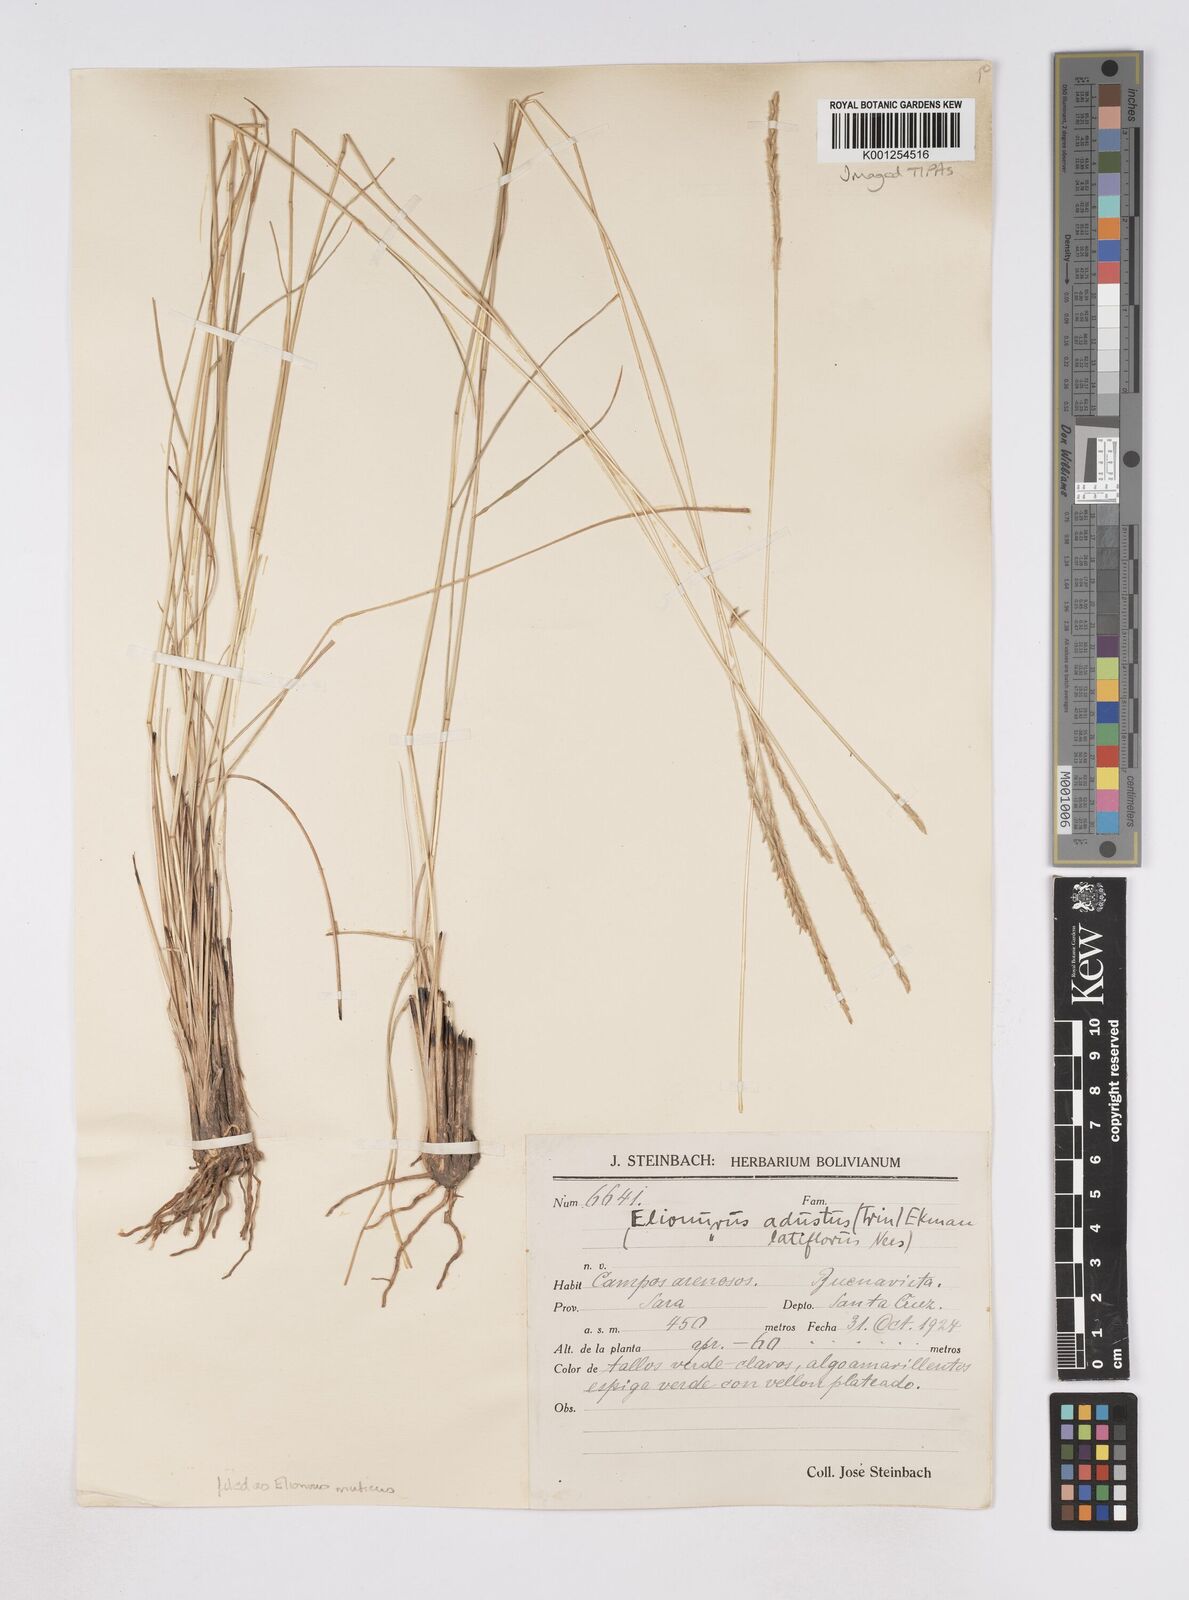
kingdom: Plantae
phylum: Tracheophyta
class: Liliopsida
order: Poales
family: Poaceae
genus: Elionurus
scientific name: Elionurus muticus
